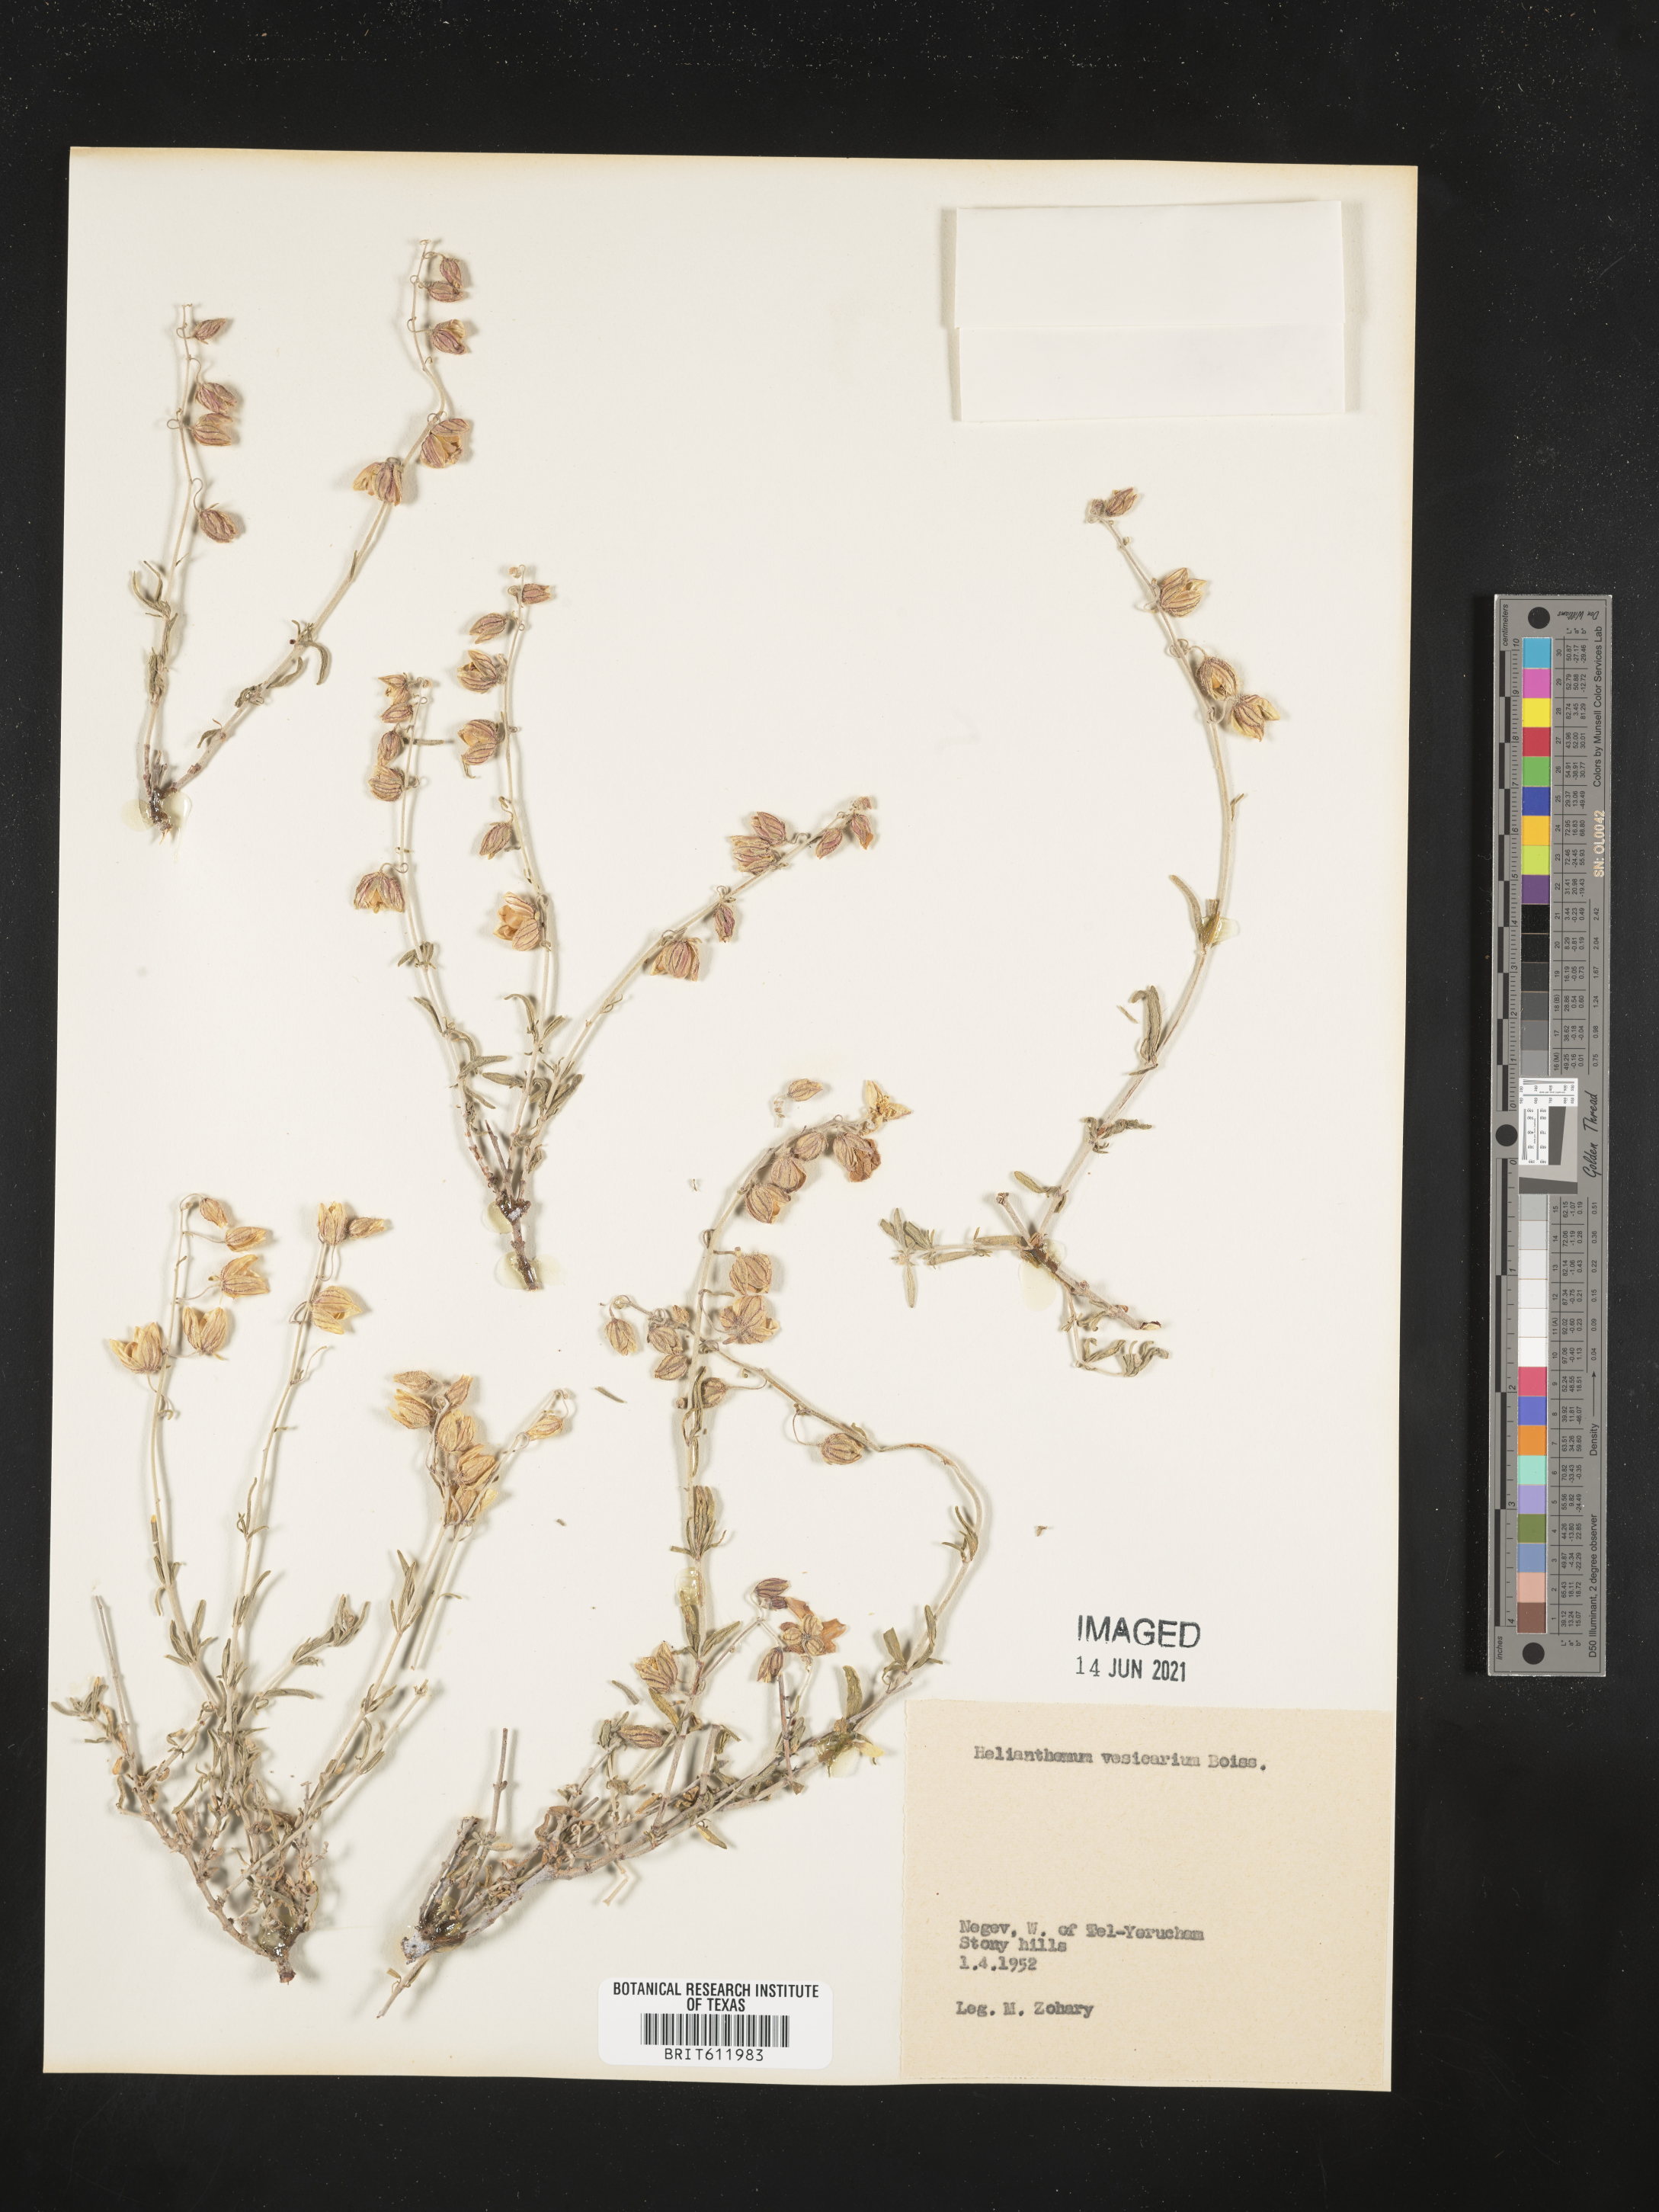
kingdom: Plantae
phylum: Tracheophyta
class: Magnoliopsida
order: Malvales
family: Cistaceae
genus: Helianthemum
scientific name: Helianthemum vesicarium
